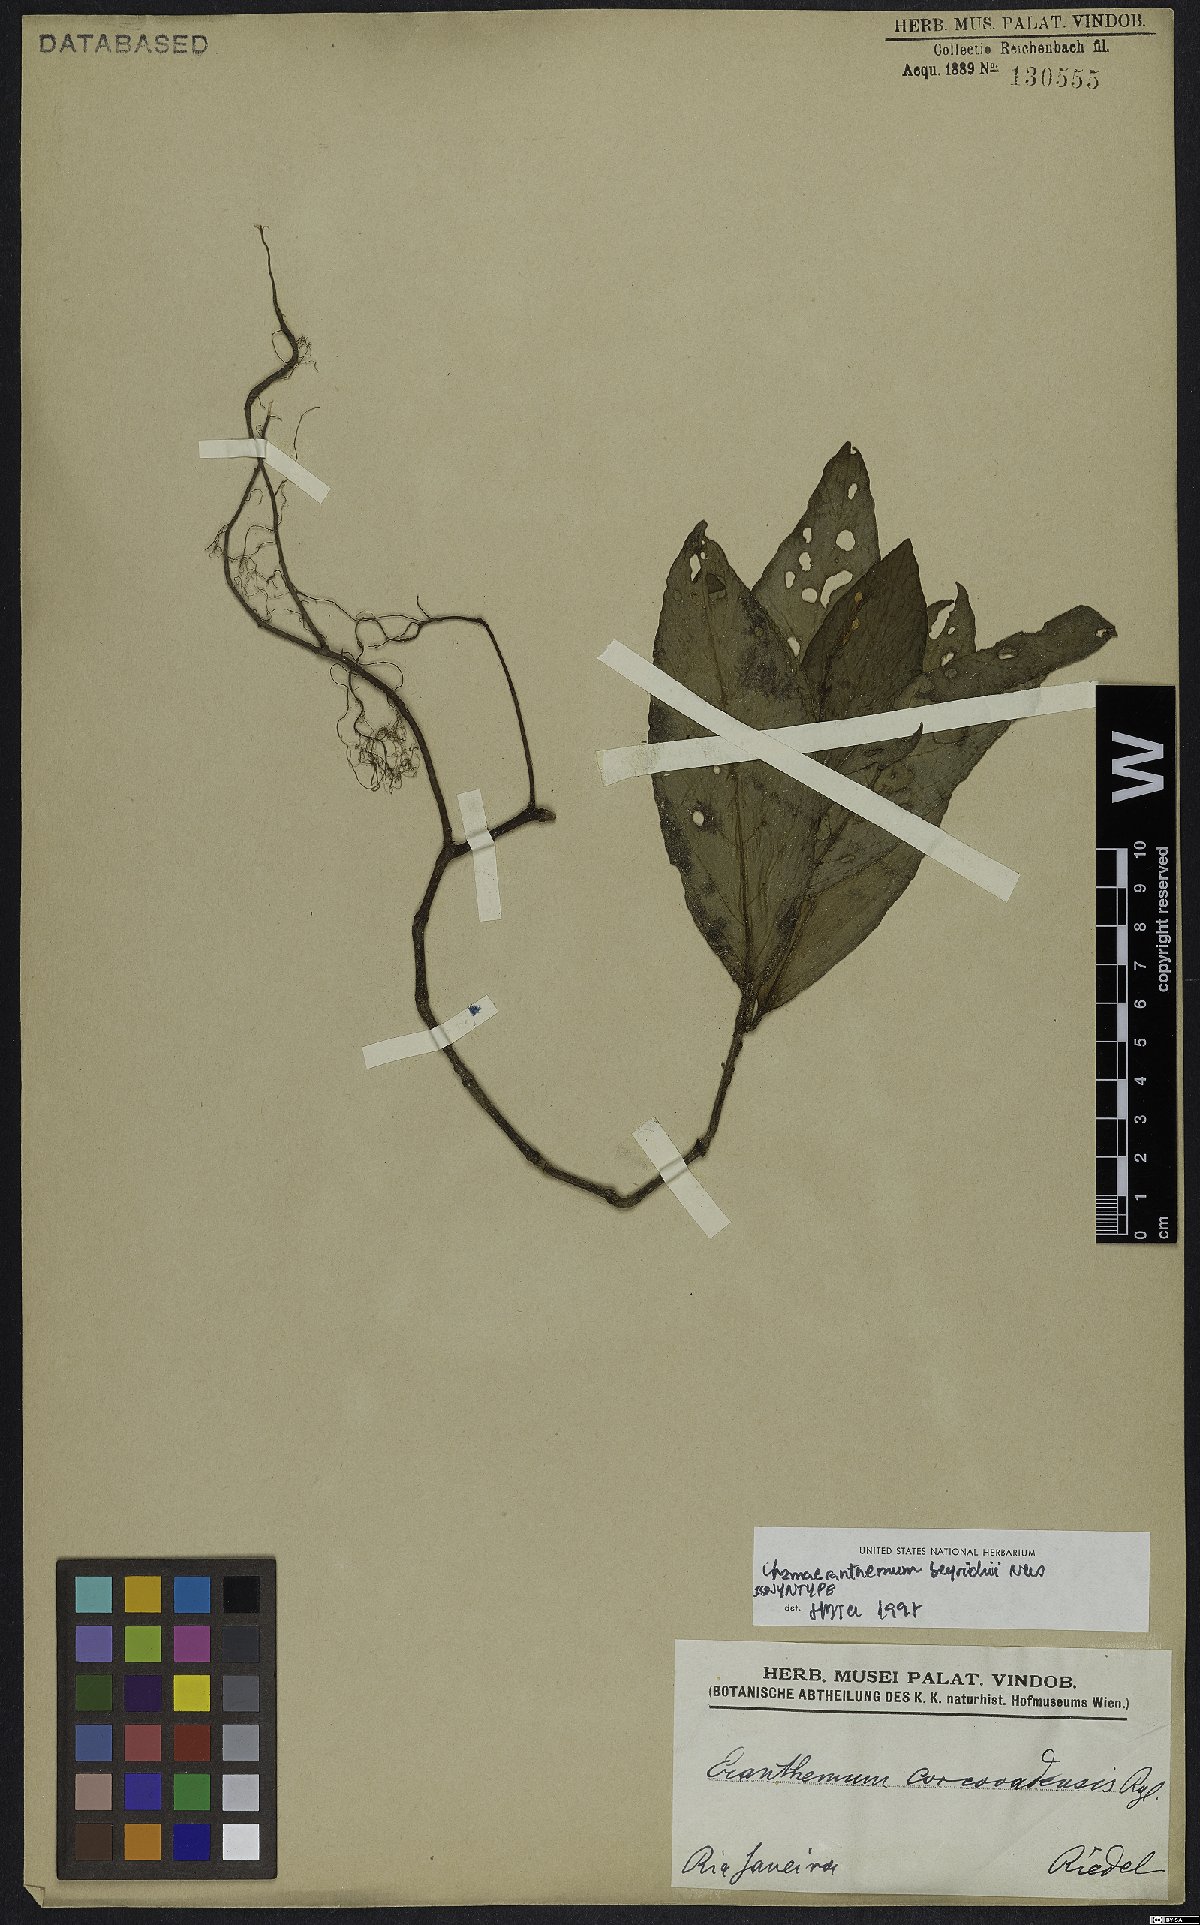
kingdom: Plantae
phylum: Tracheophyta
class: Magnoliopsida
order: Lamiales
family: Acanthaceae
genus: Chamaeranthemum
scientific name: Chamaeranthemum beyrichii
